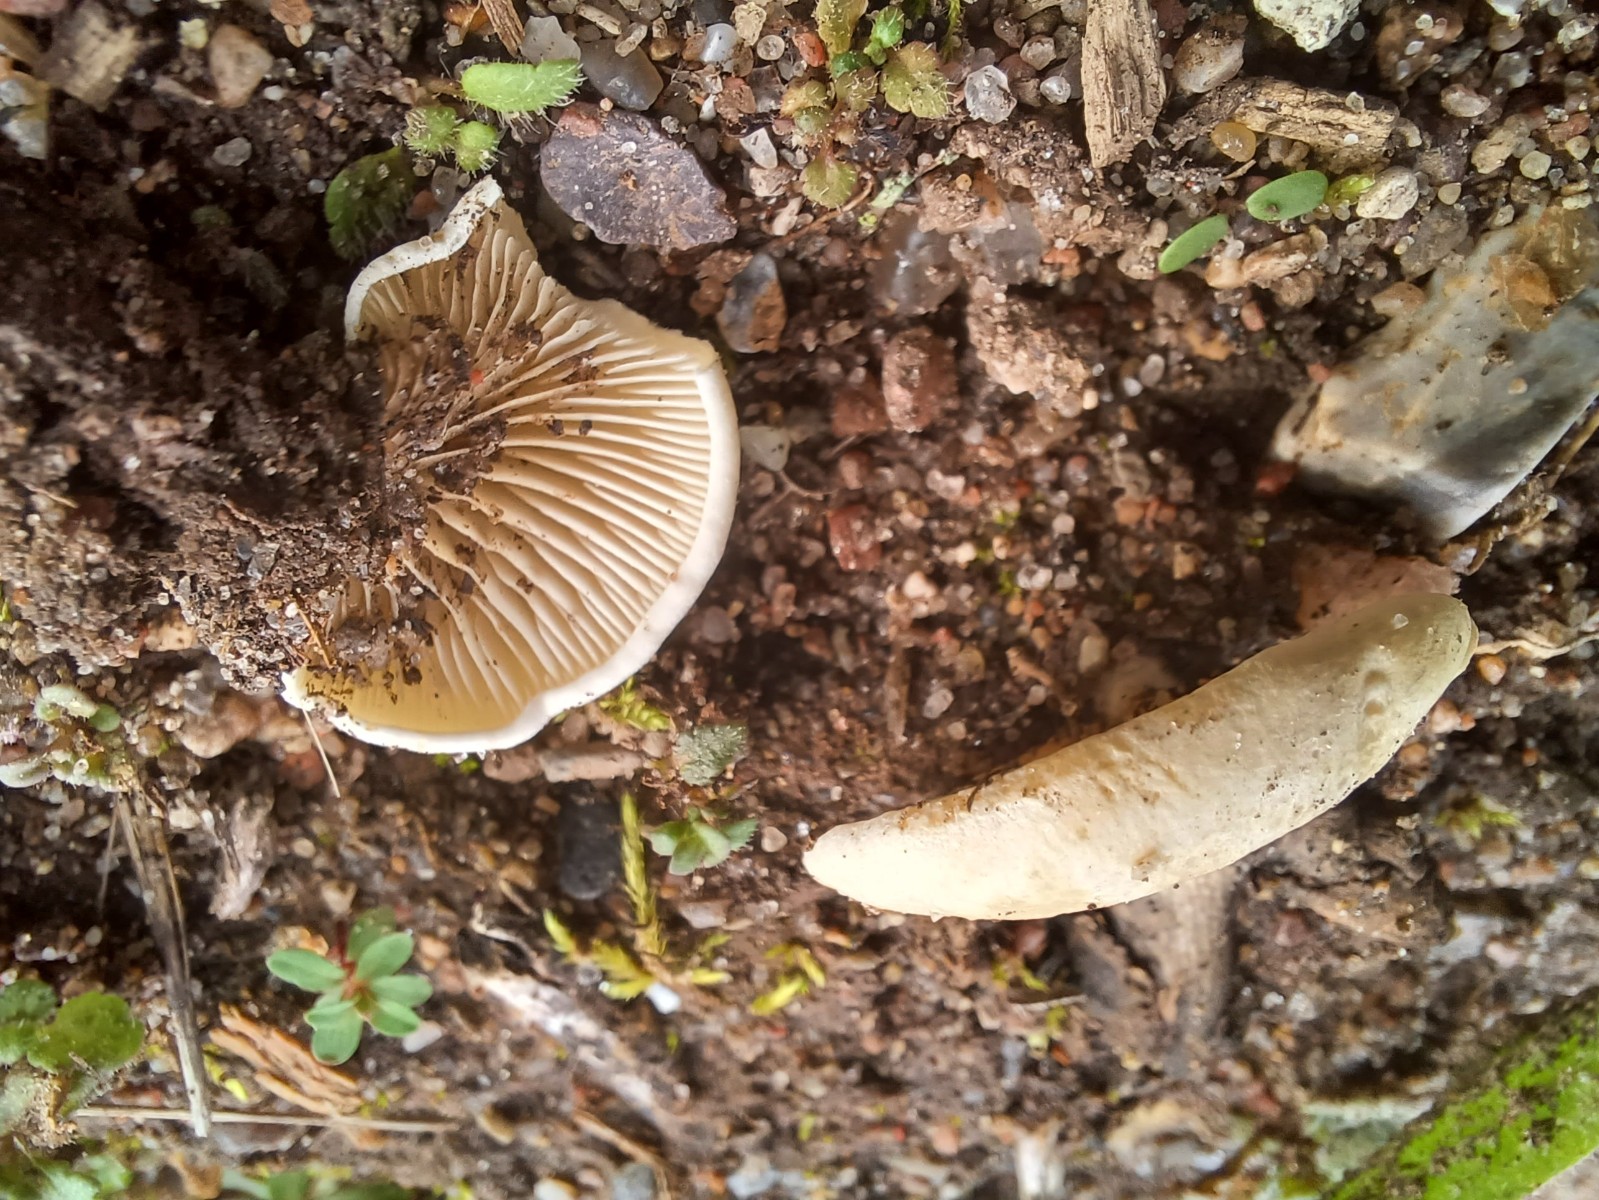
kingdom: Fungi
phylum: Basidiomycota
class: Agaricomycetes
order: Agaricales
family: Crepidotaceae
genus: Crepidotus
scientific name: Crepidotus
